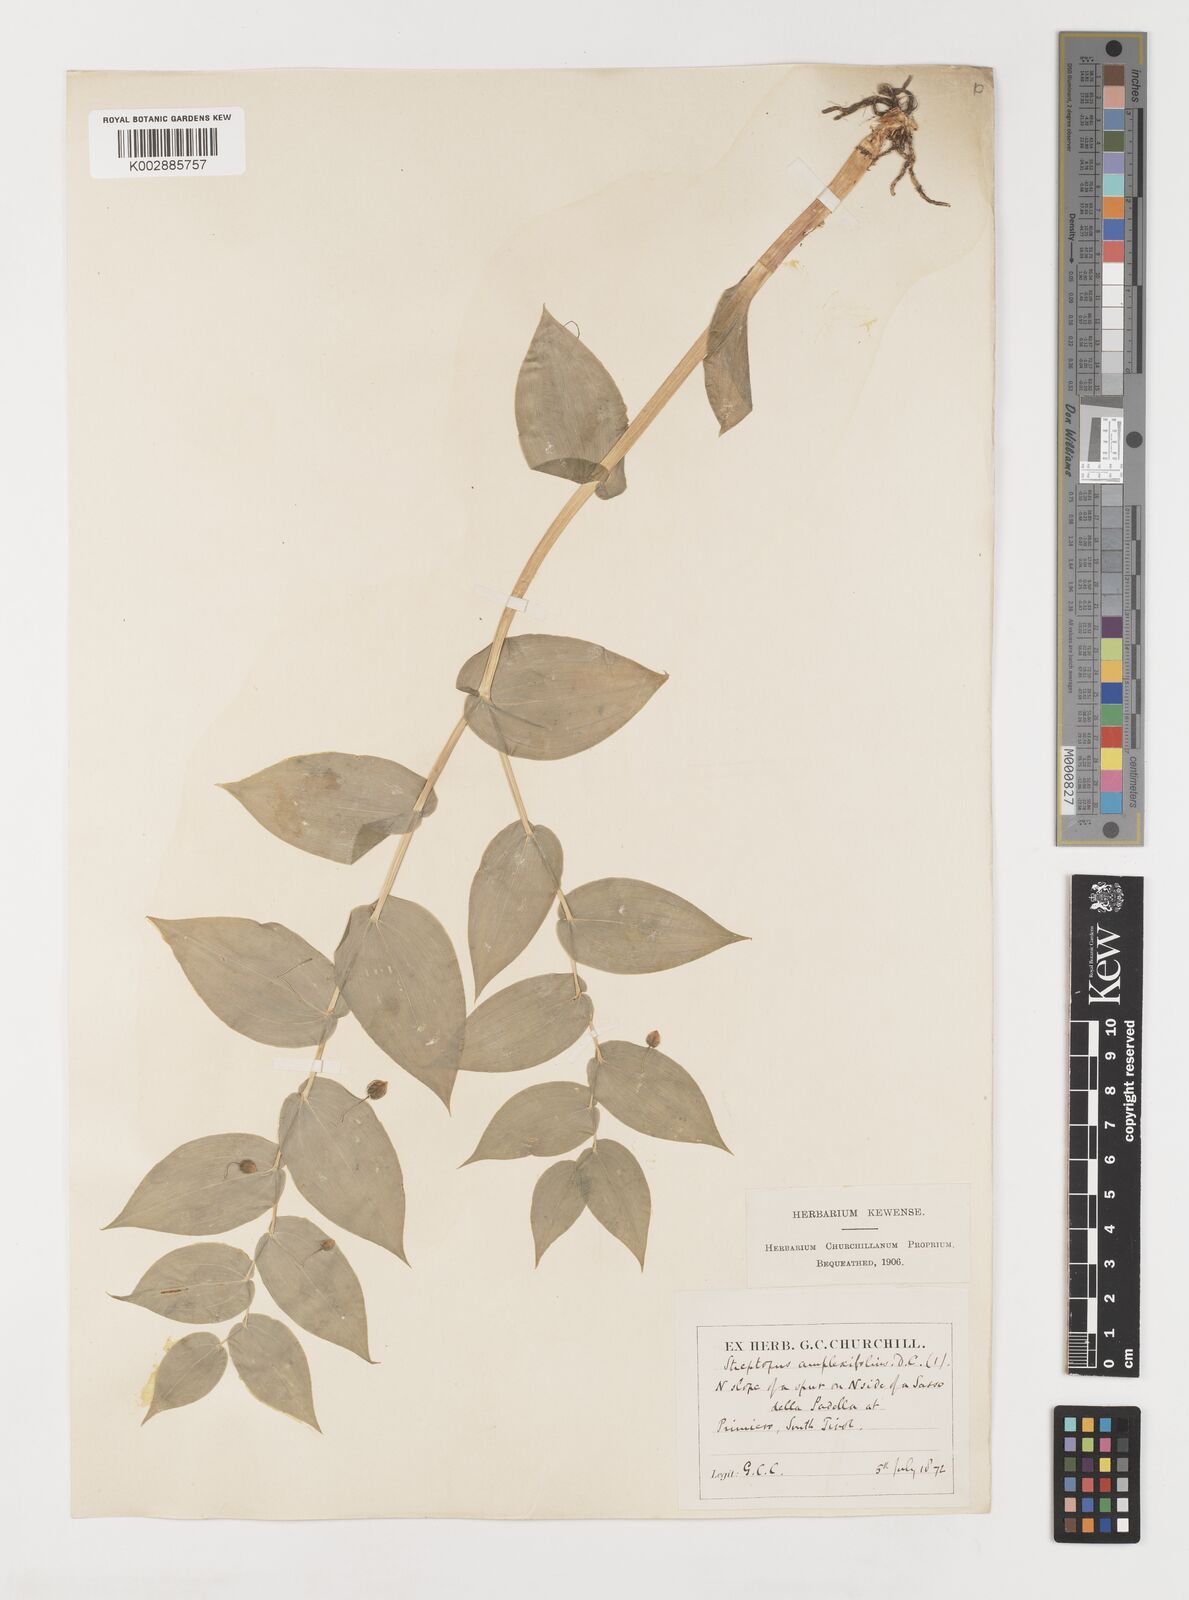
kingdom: Plantae
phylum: Tracheophyta
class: Liliopsida
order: Liliales
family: Liliaceae
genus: Streptopus
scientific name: Streptopus amplexifolius
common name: Clasp twisted stalk
